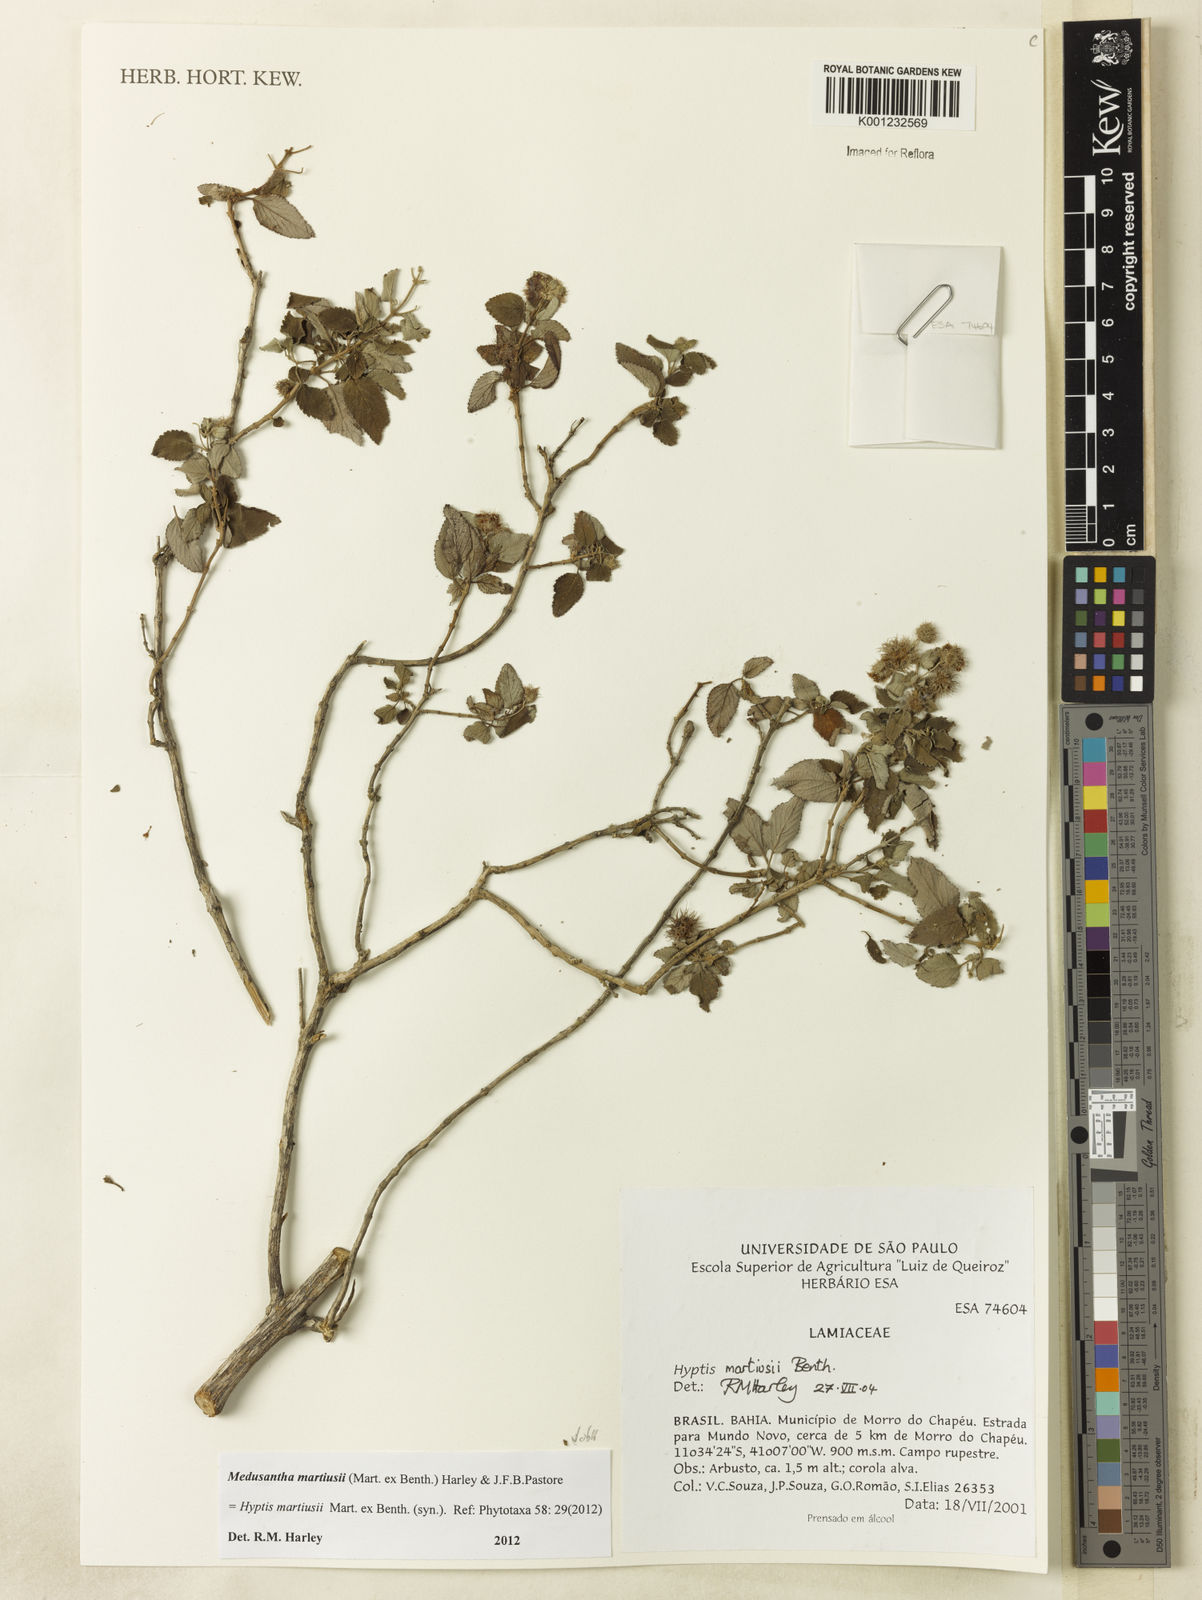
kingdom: Plantae
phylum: Tracheophyta
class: Magnoliopsida
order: Lamiales
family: Lamiaceae
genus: Medusantha
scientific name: Medusantha martiusii
